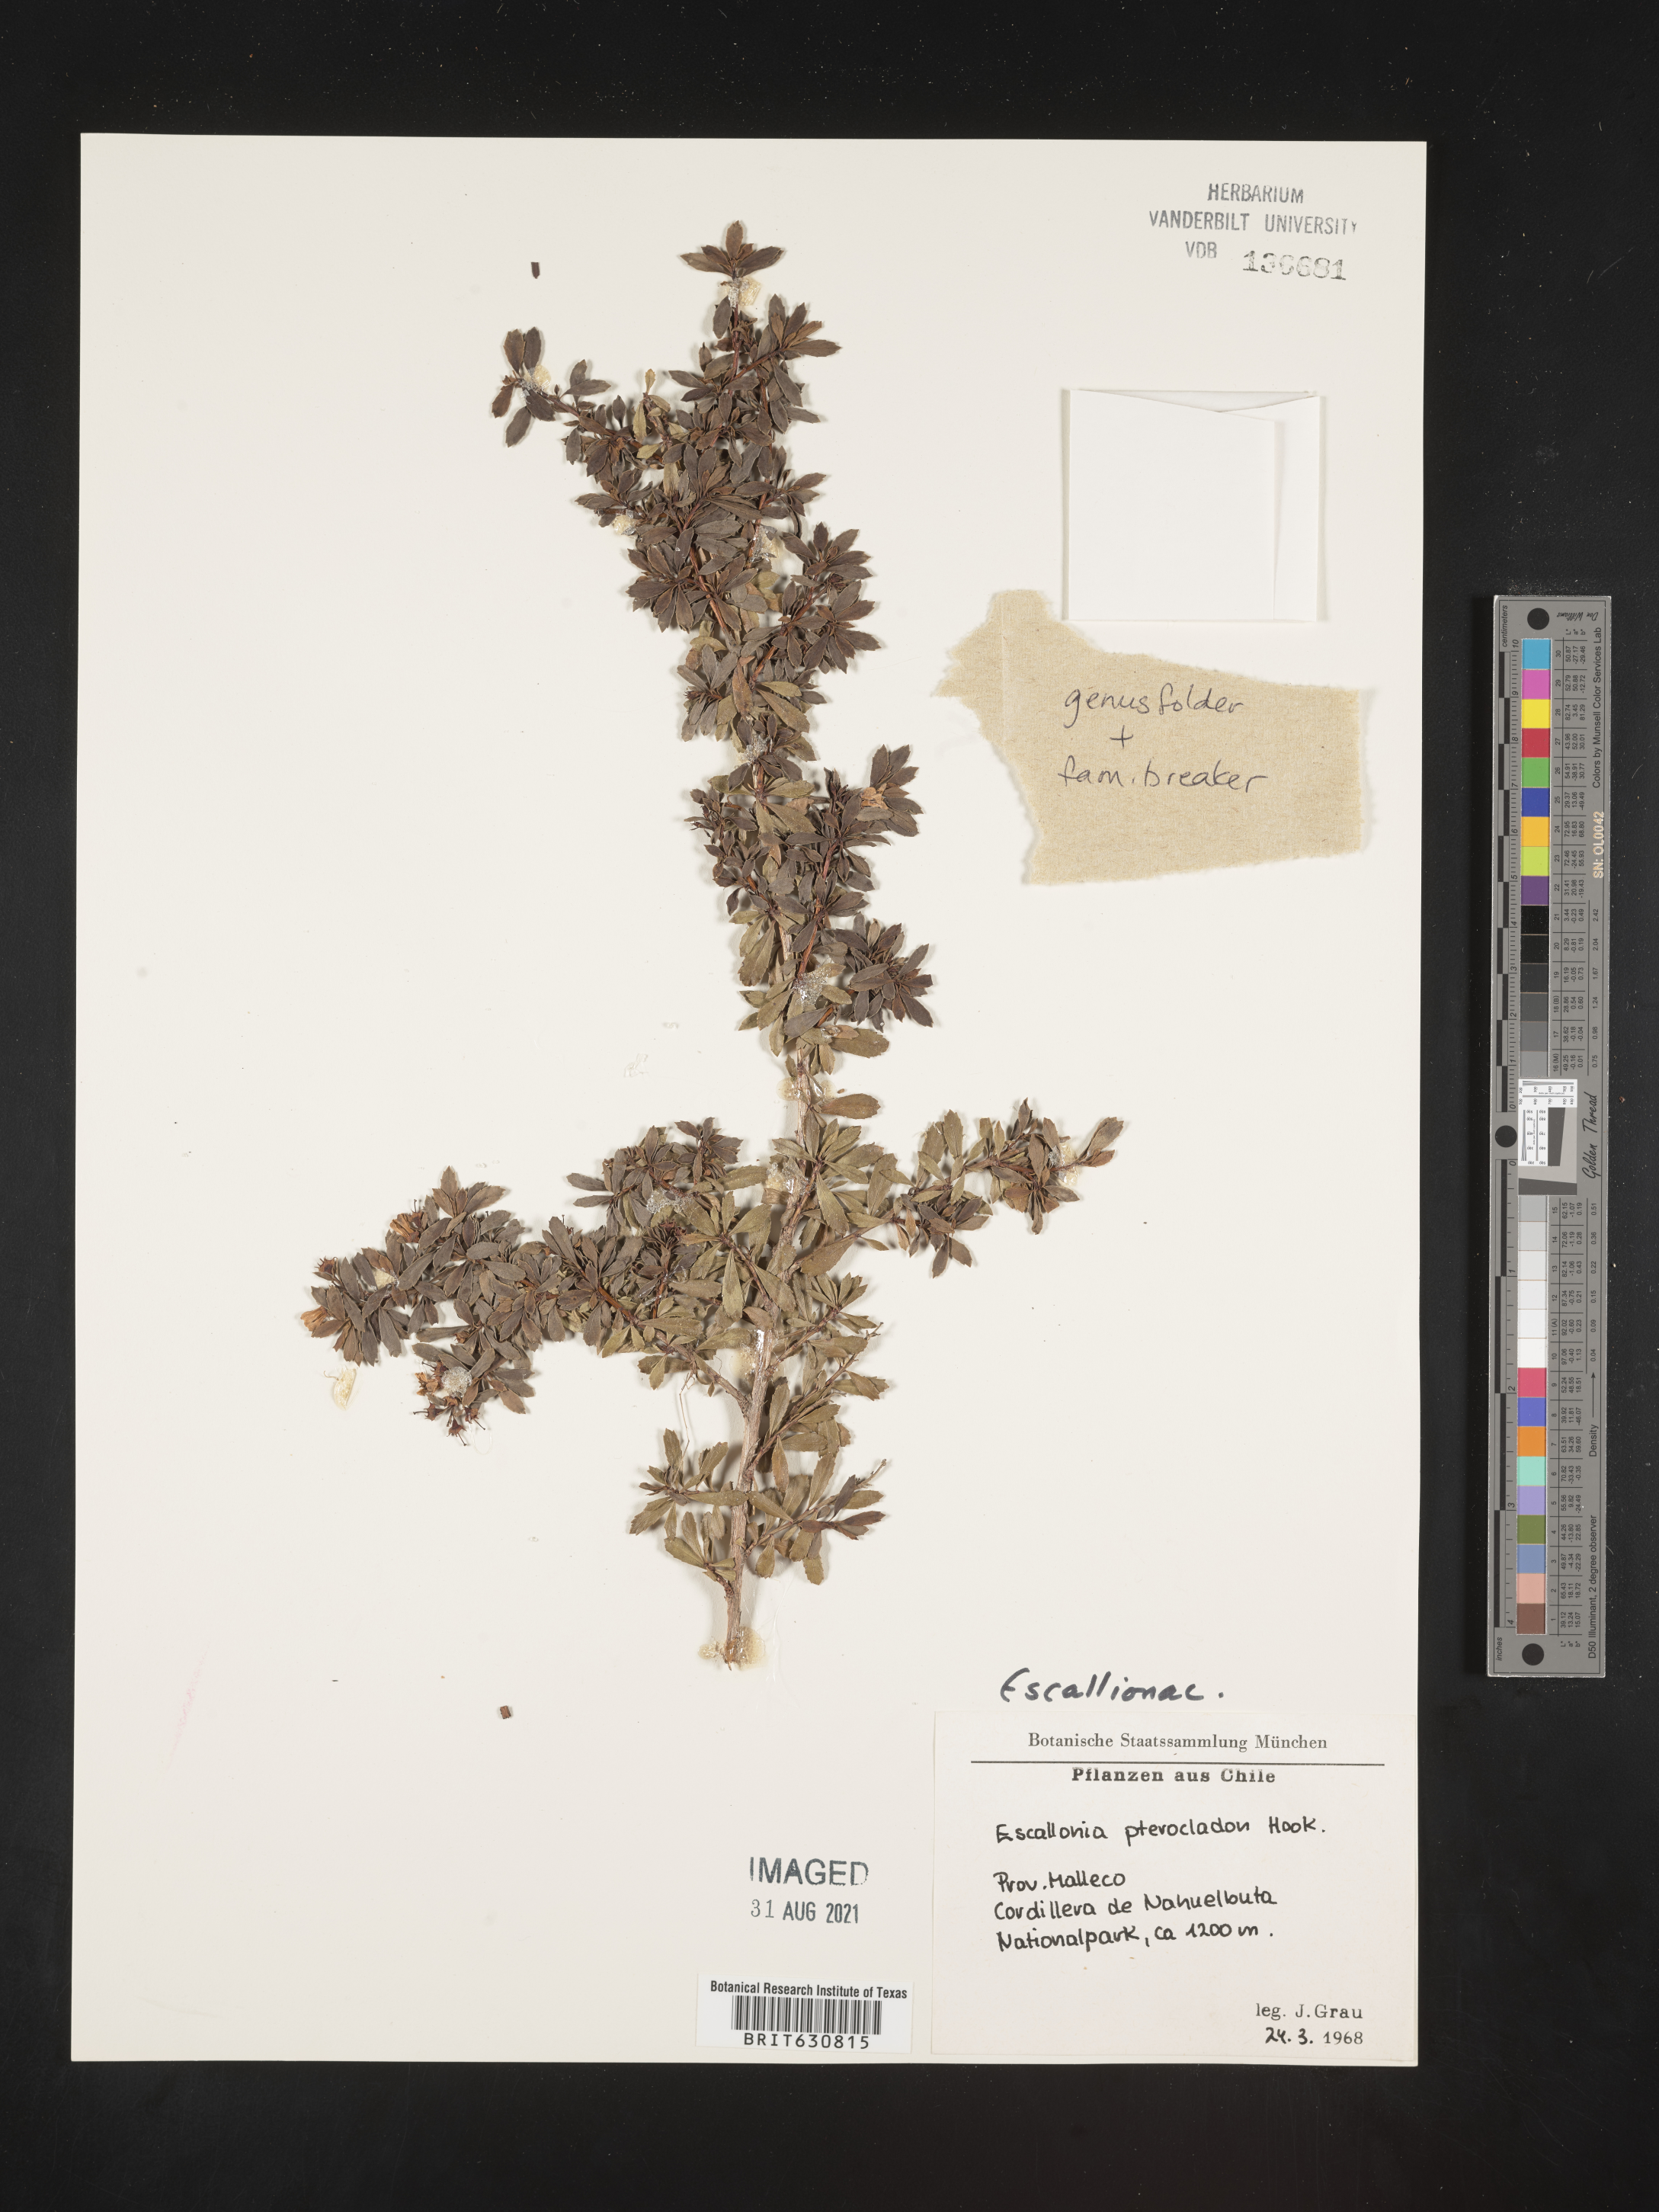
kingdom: Plantae
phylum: Tracheophyta
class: Magnoliopsida
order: Escalloniales
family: Escalloniaceae
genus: Escallonia
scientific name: Escallonia
